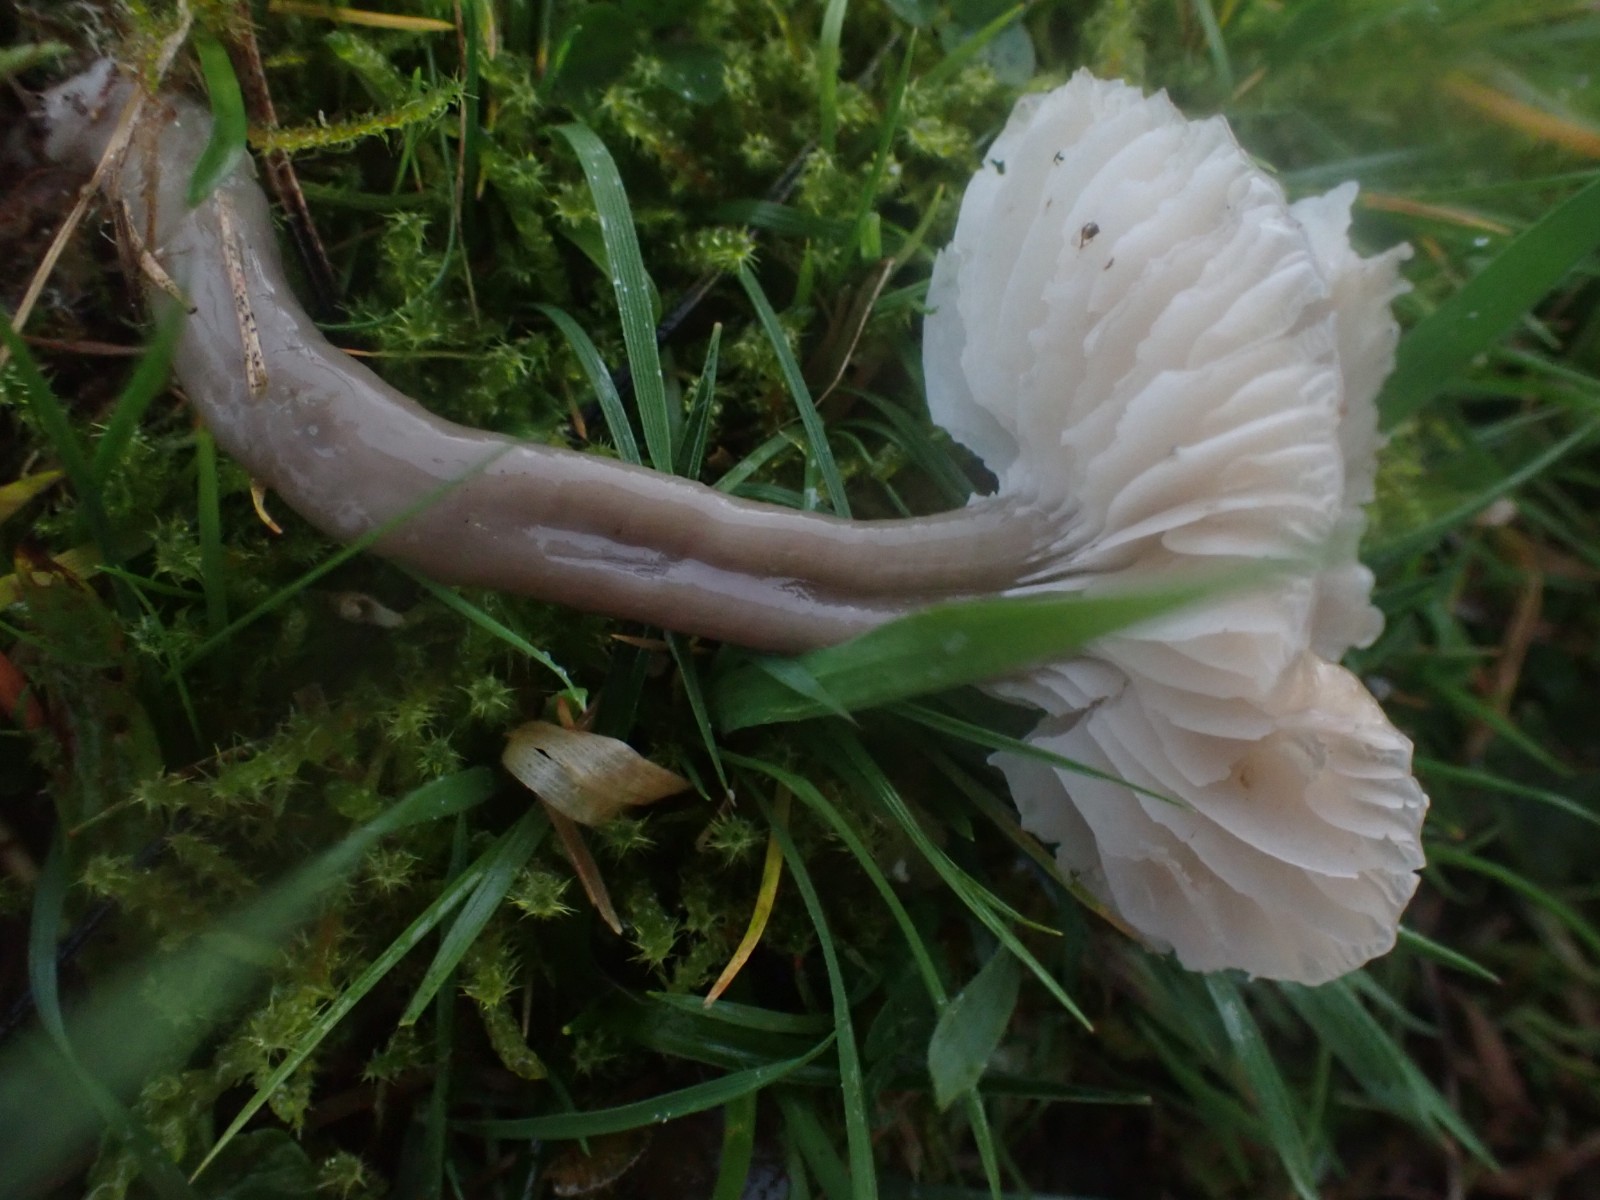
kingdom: Fungi
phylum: Basidiomycota
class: Agaricomycetes
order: Agaricales
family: Hygrophoraceae
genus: Gliophorus
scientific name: Gliophorus irrigatus
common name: slimet vokshat
